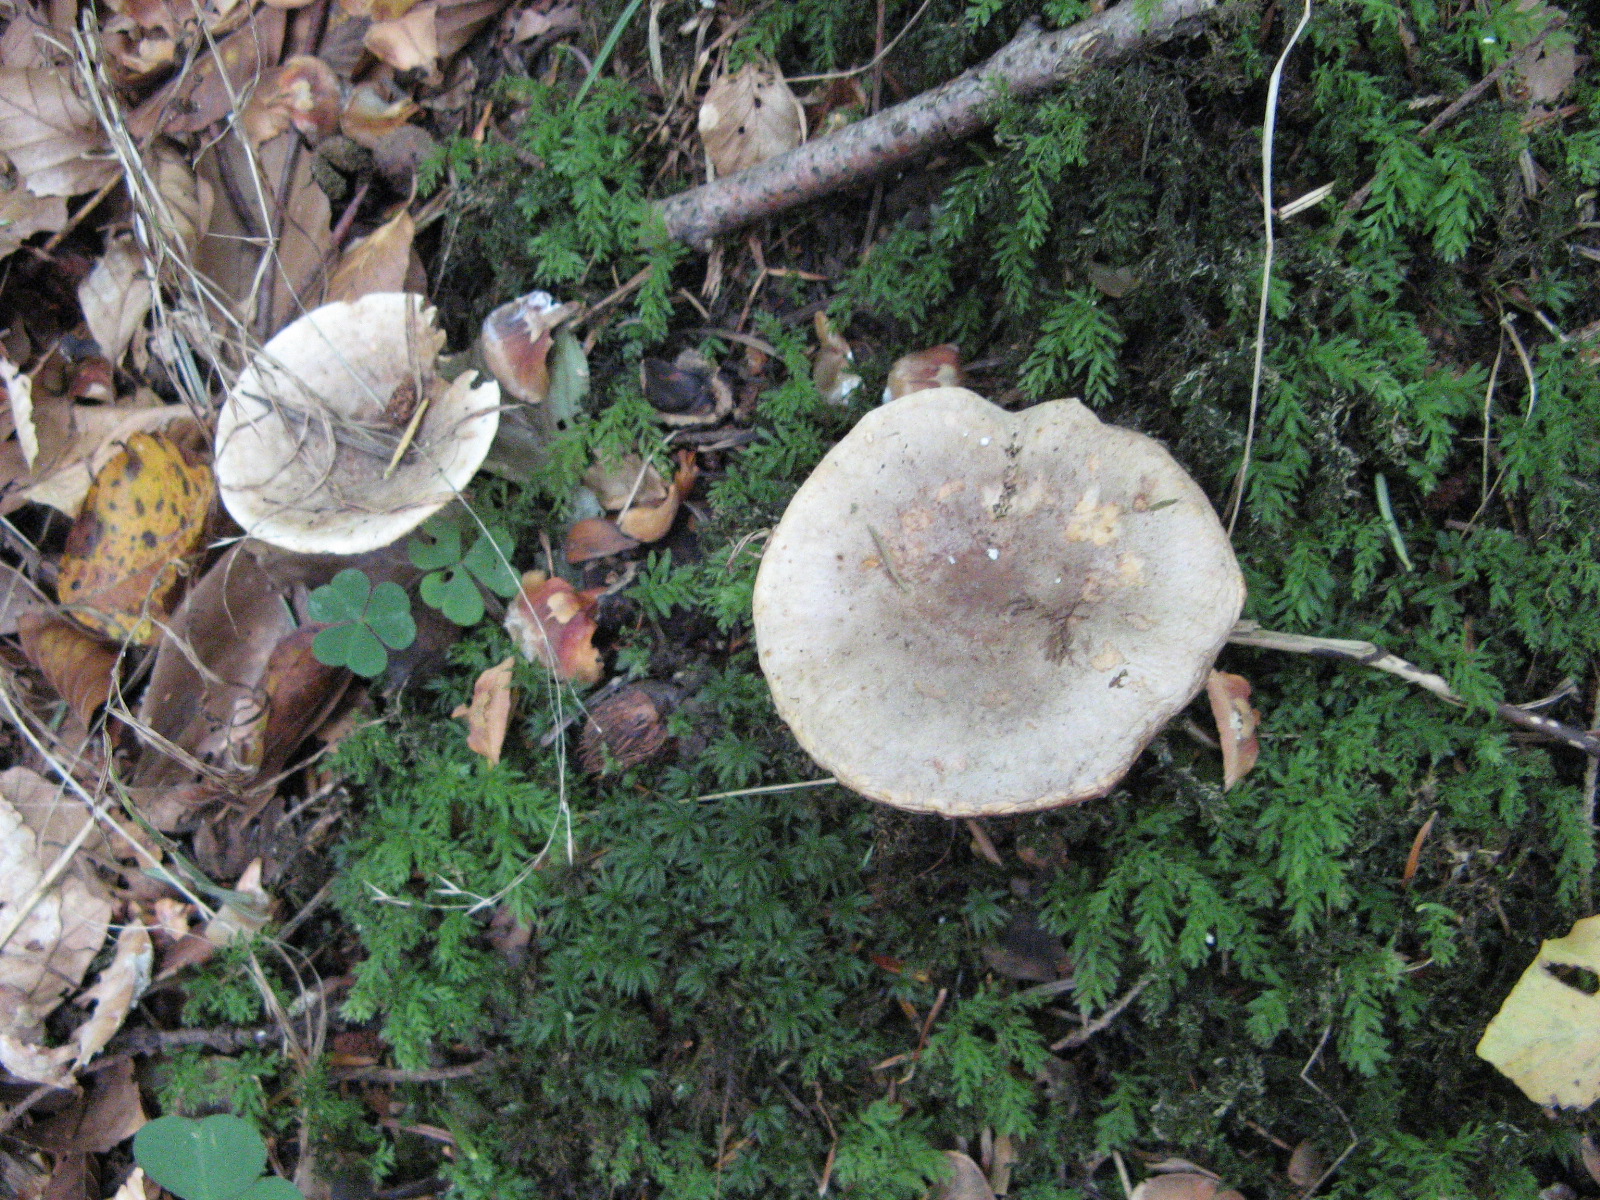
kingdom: Fungi
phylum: Basidiomycota
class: Agaricomycetes
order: Russulales
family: Russulaceae
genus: Lactarius
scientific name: Lactarius blennius
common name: dråbeplettet mælkehat
